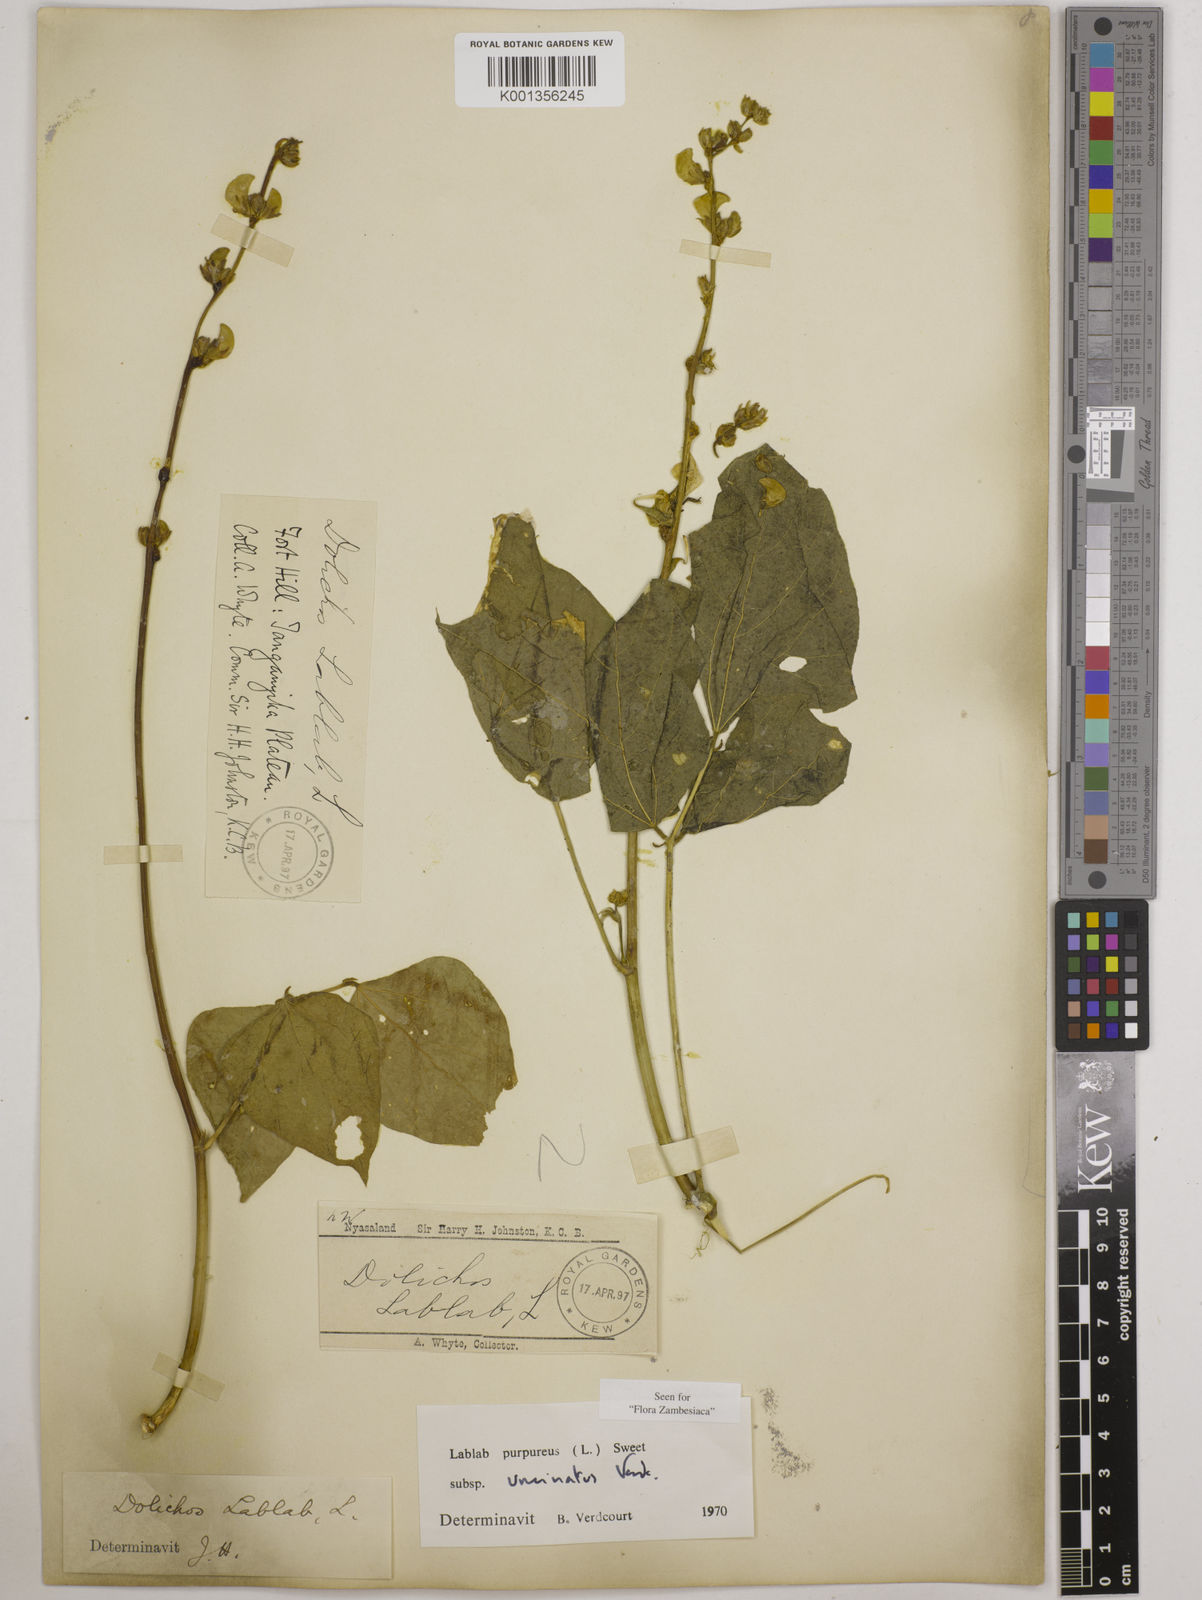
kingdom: Plantae
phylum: Tracheophyta
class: Magnoliopsida
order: Fabales
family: Fabaceae
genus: Lablab
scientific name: Lablab purpureus
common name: Lablab-bean
